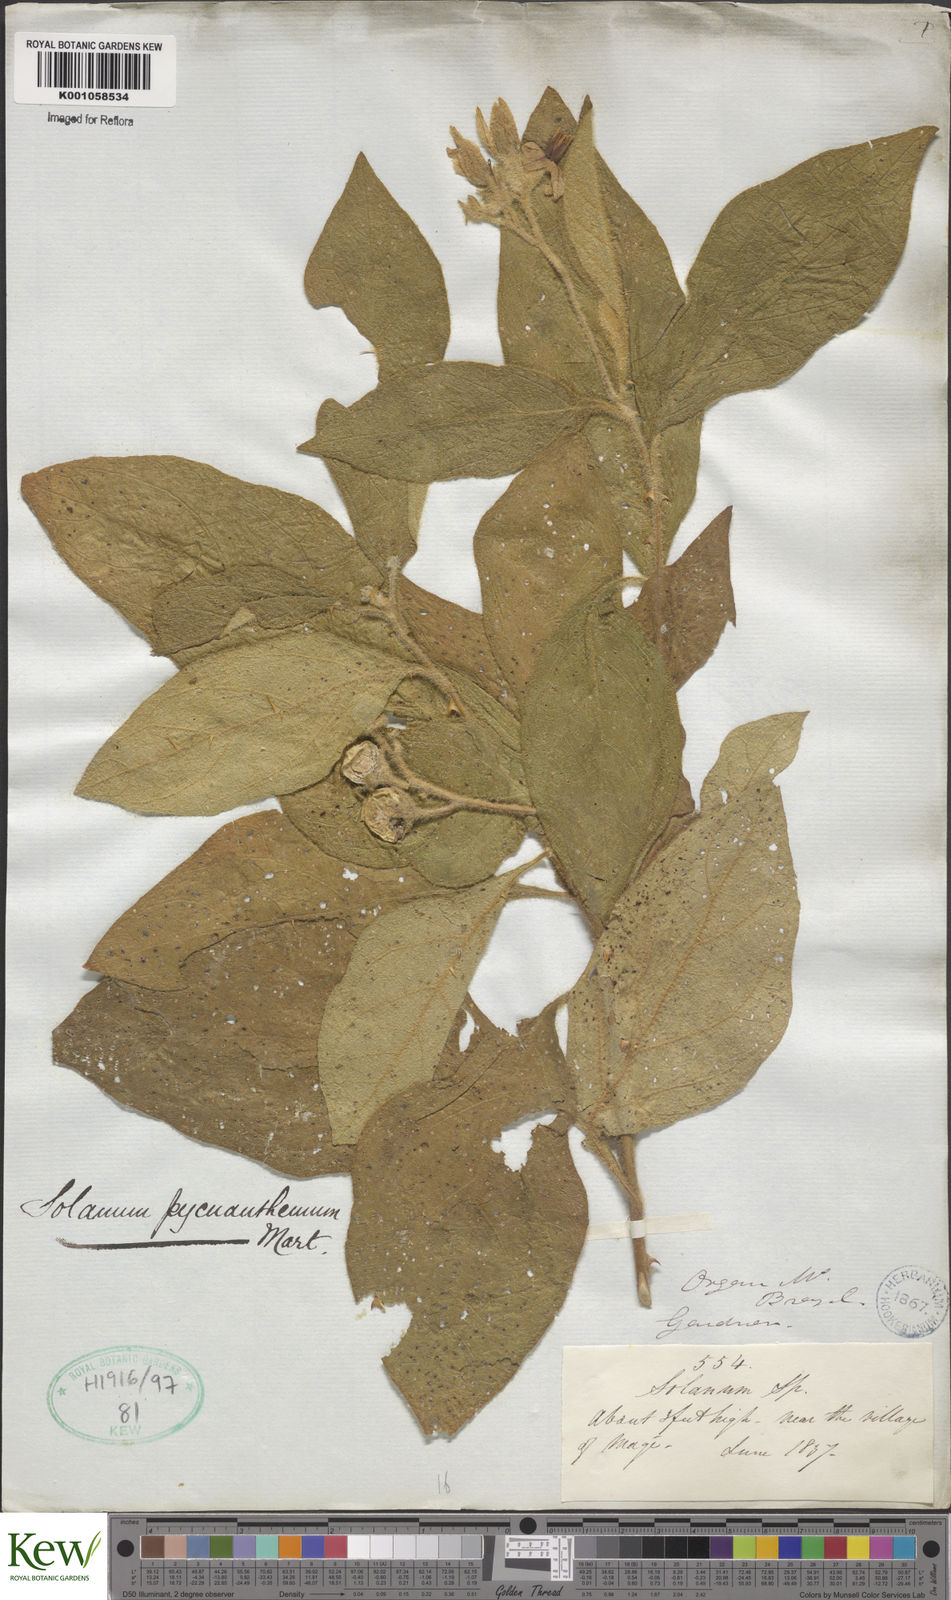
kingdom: Plantae
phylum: Tracheophyta
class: Magnoliopsida
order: Solanales
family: Solanaceae
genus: Solanum
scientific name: Solanum pycnanthemum
